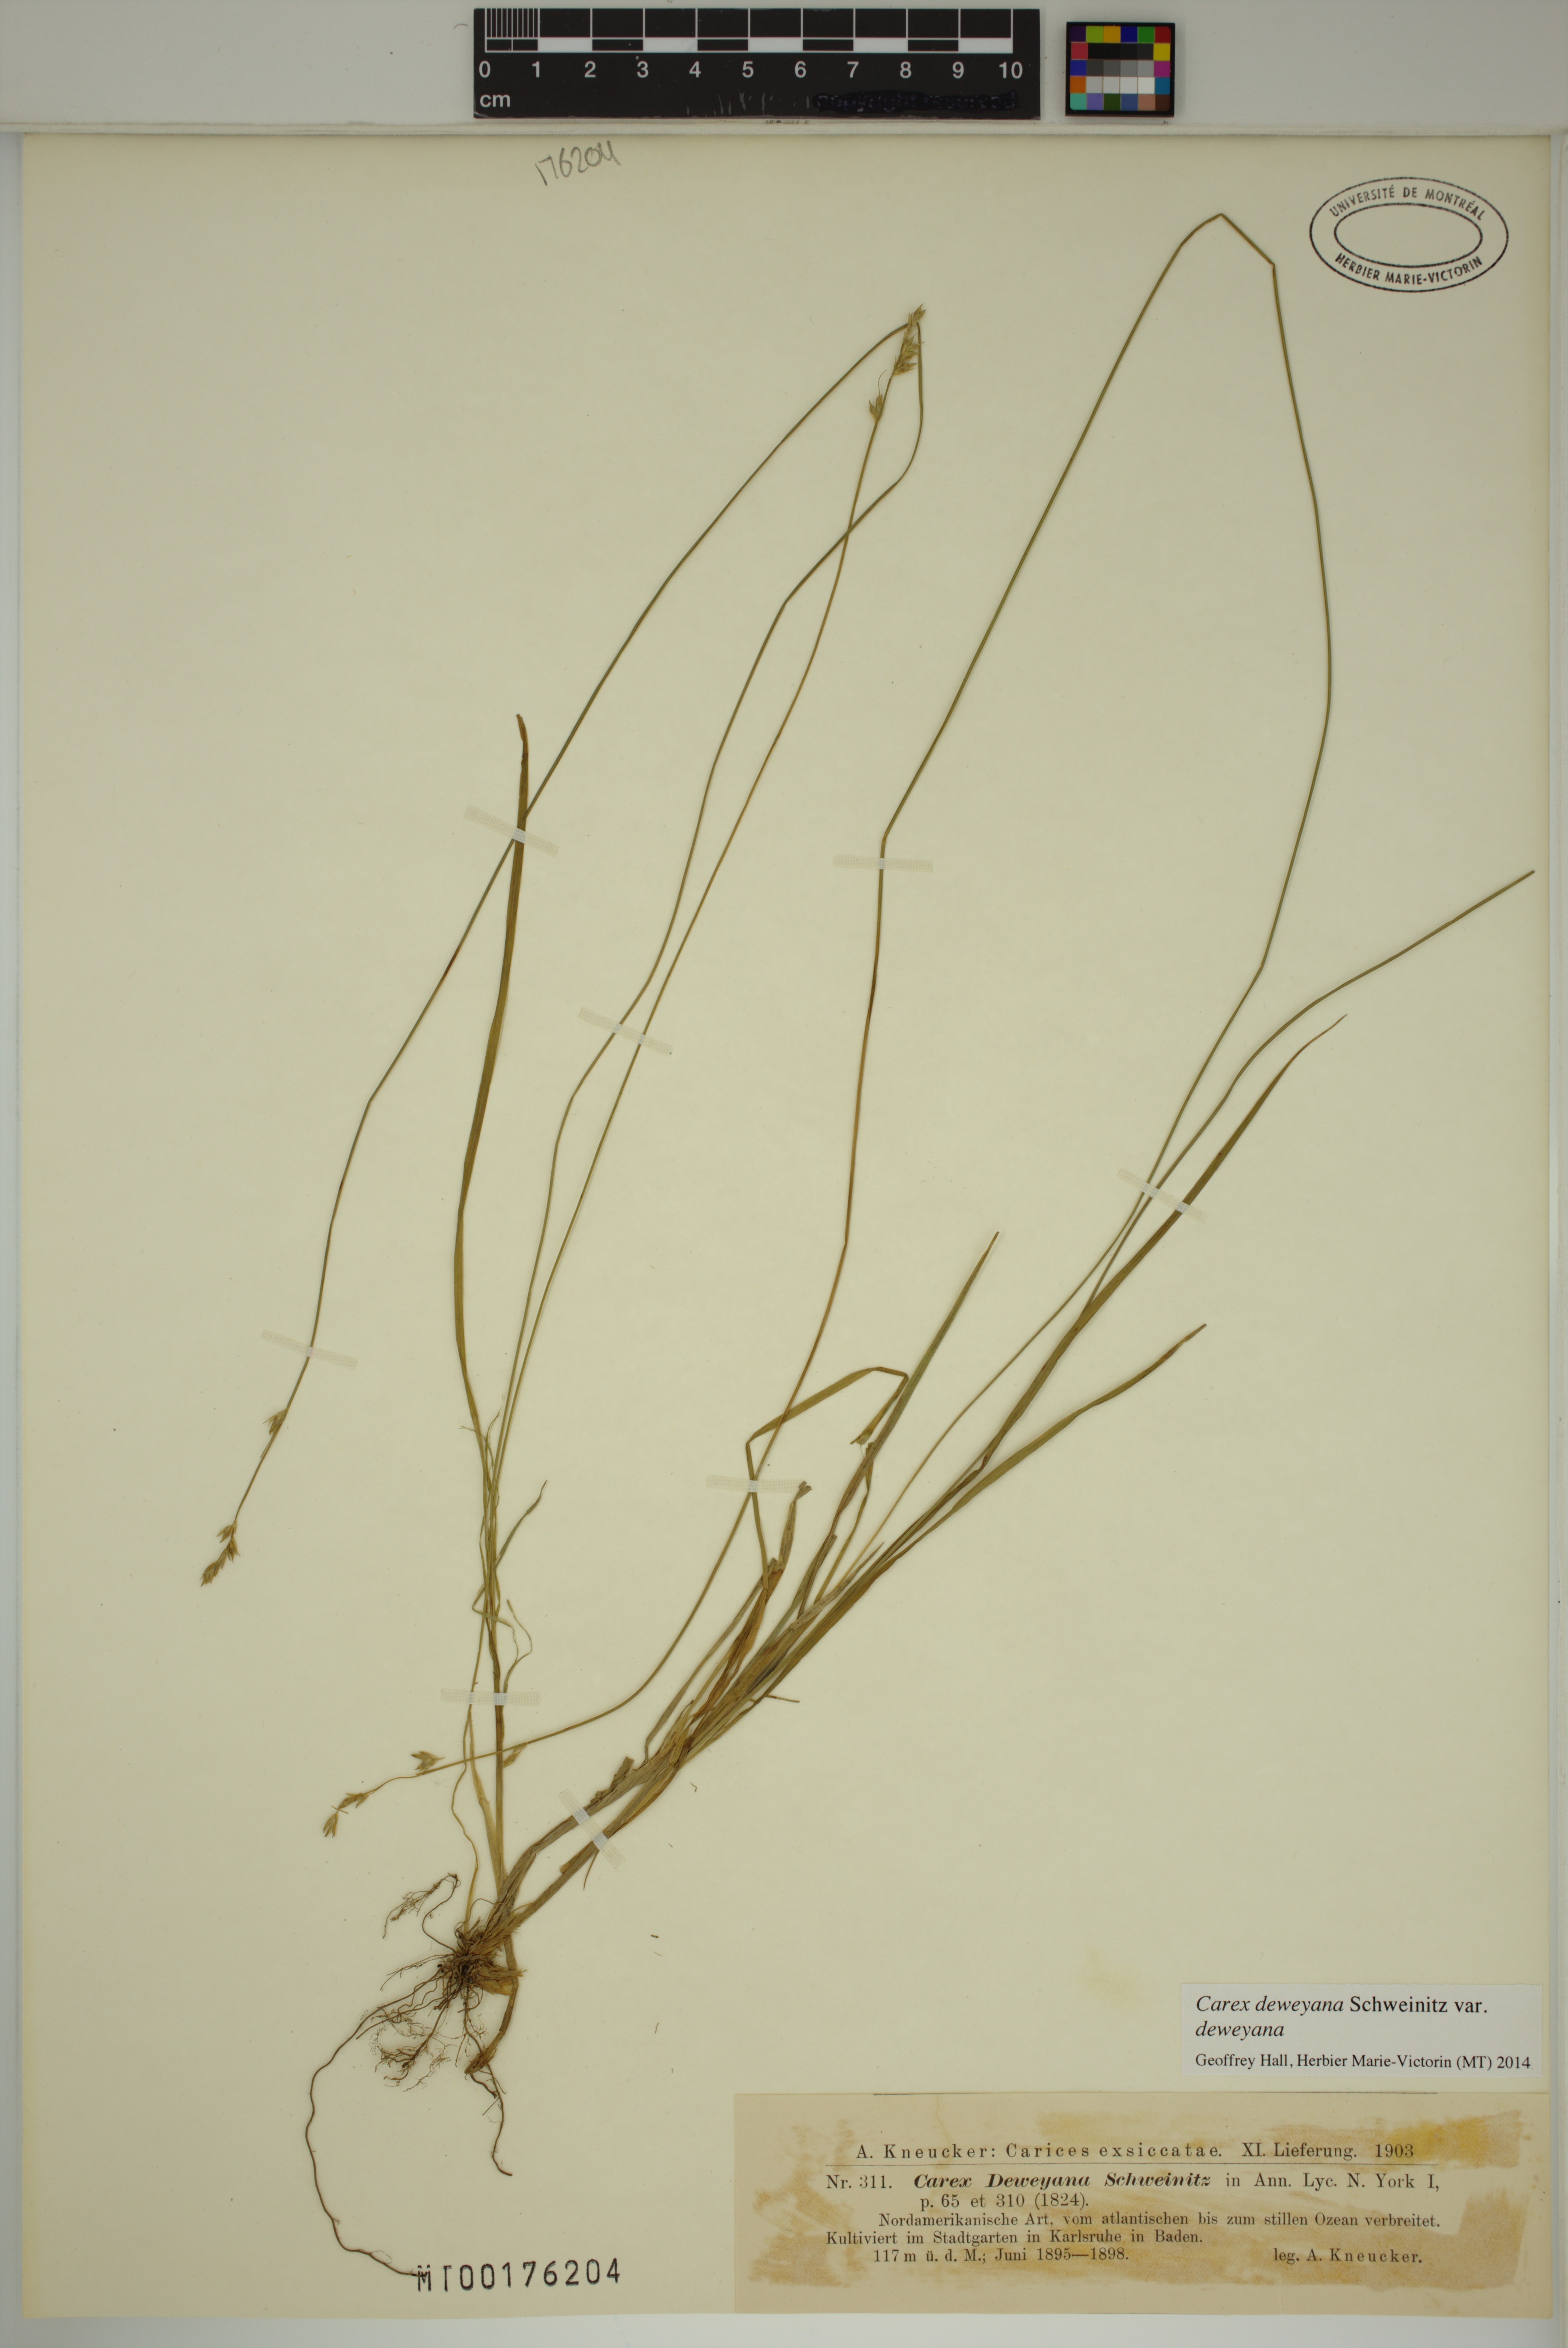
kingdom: Plantae
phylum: Tracheophyta
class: Liliopsida
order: Poales
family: Cyperaceae
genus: Carex
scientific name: Carex deweyana
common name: Dewey's sedge
